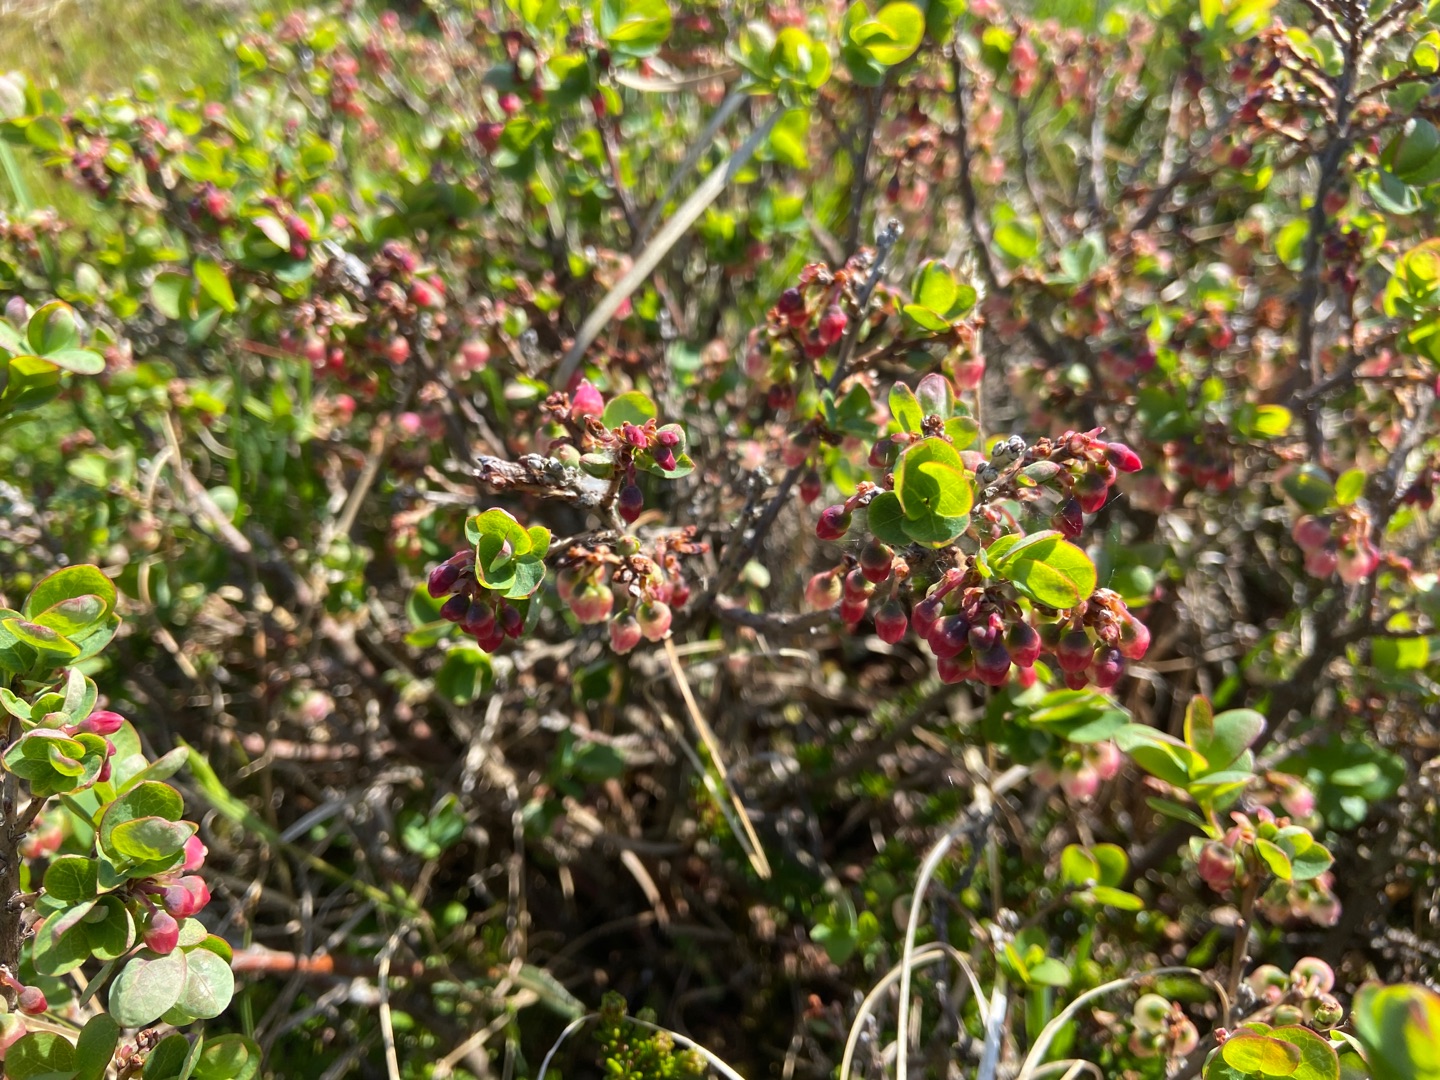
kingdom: Plantae
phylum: Tracheophyta
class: Magnoliopsida
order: Ericales
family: Ericaceae
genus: Vaccinium
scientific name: Vaccinium uliginosum
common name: Mose-bølle
